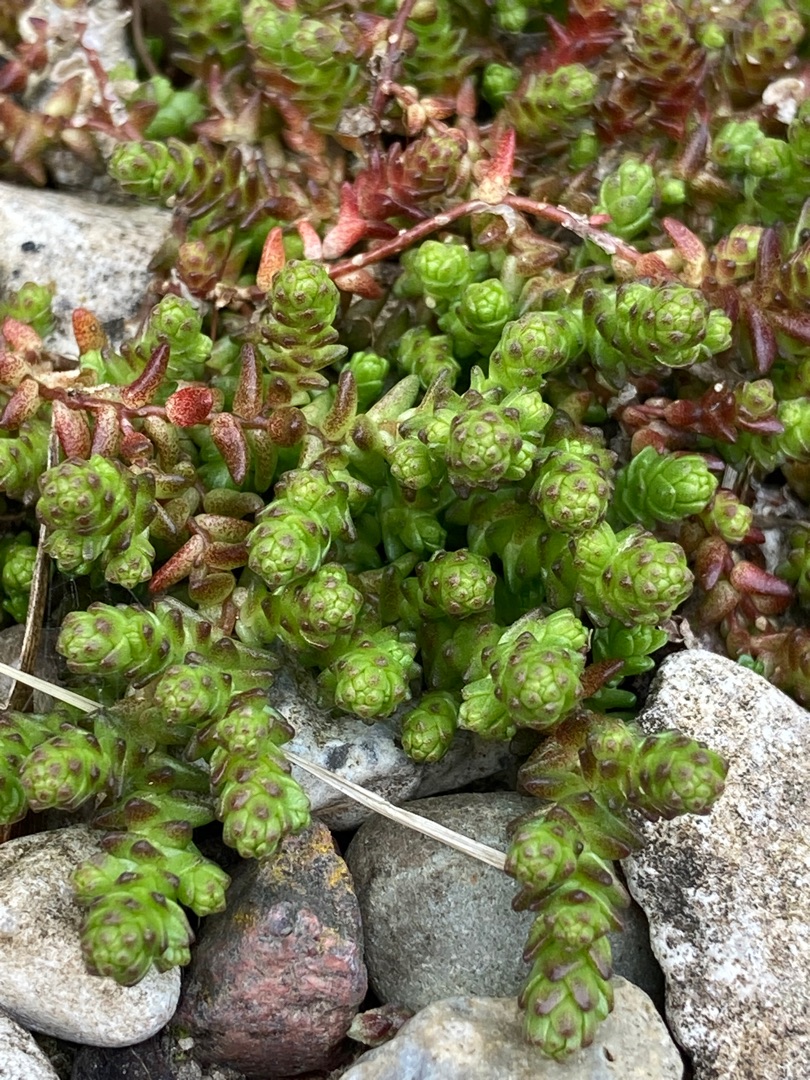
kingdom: Plantae
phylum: Tracheophyta
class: Magnoliopsida
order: Saxifragales
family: Crassulaceae
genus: Sedum
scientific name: Sedum acre
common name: Bidende stenurt
